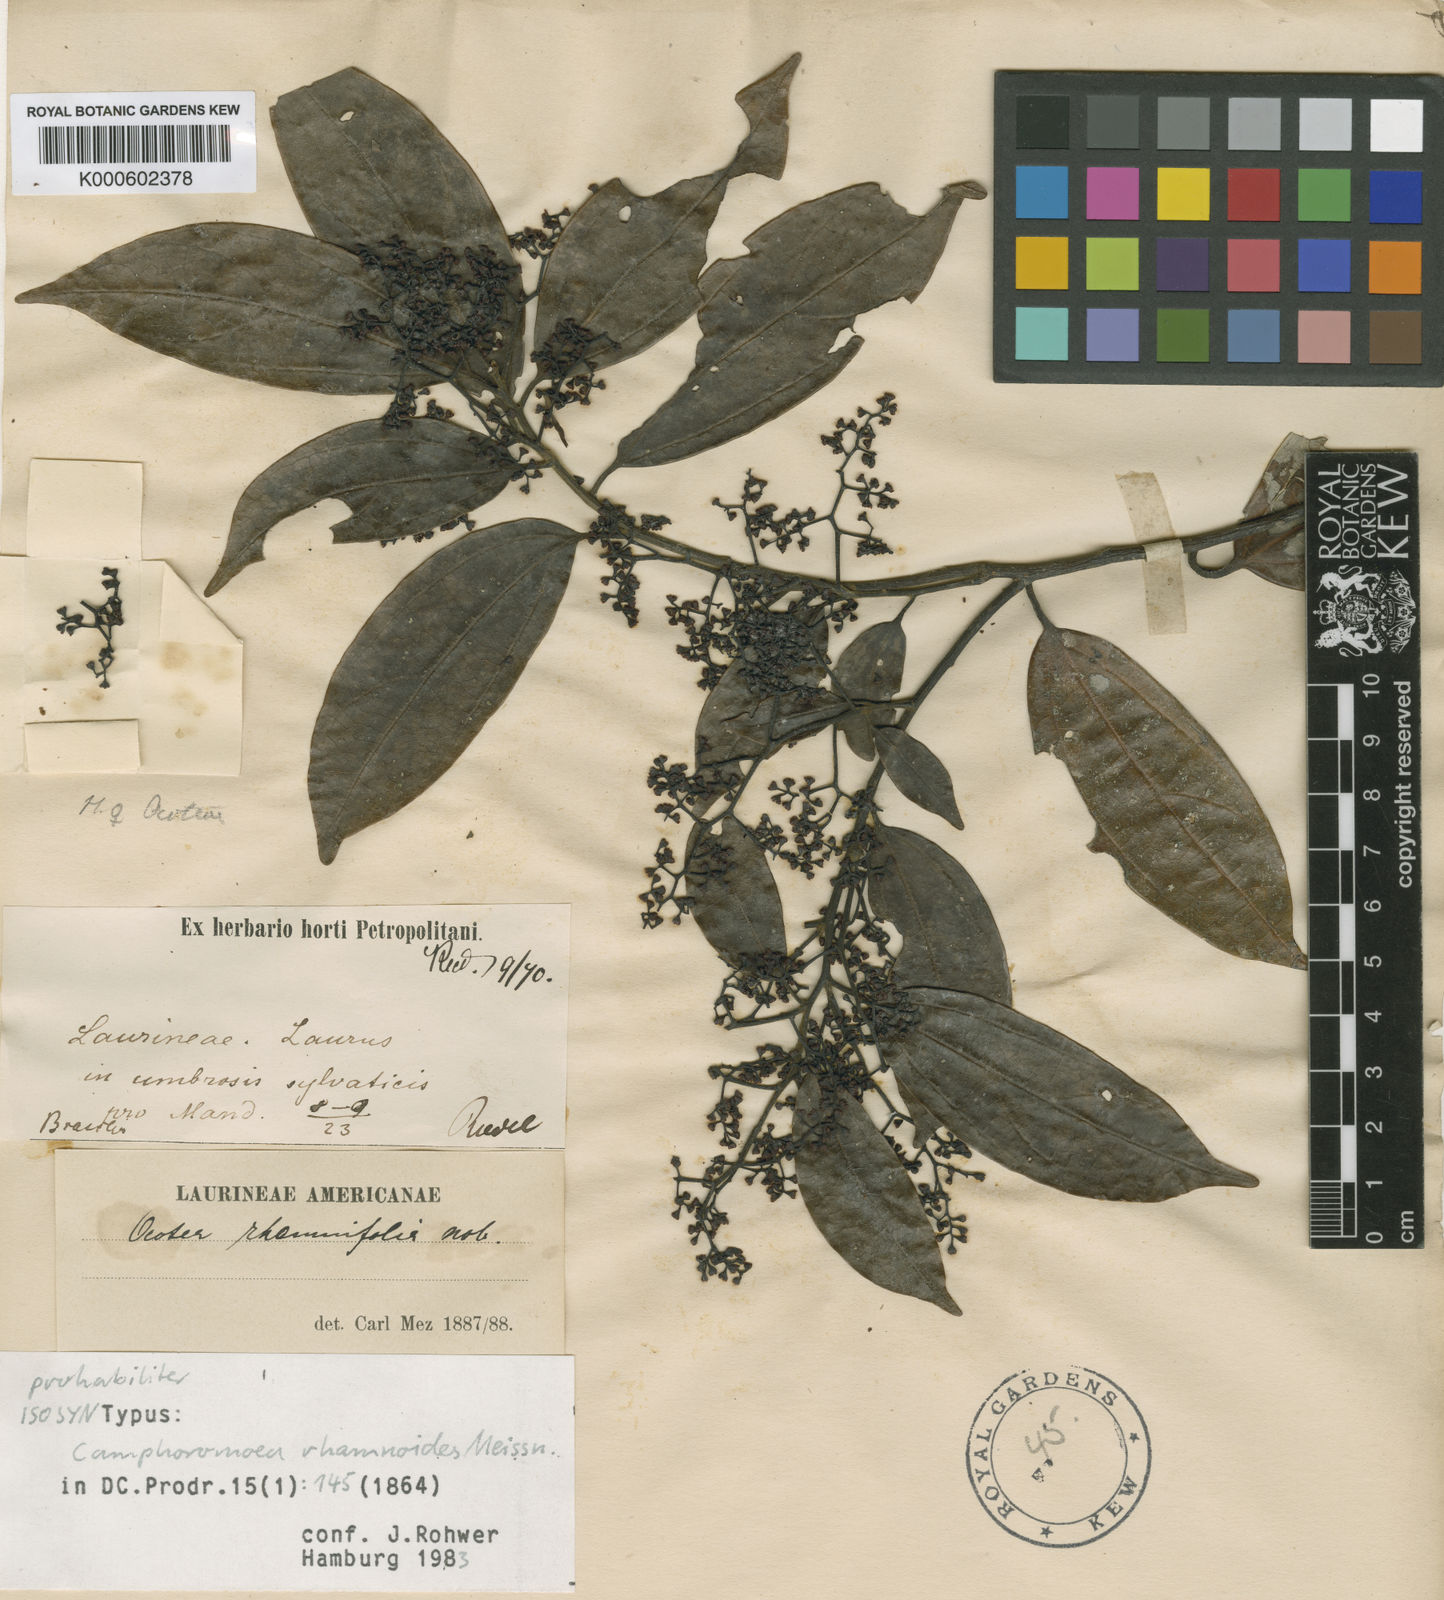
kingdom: Plantae
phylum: Tracheophyta
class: Magnoliopsida
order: Laurales
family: Lauraceae
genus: Ocotea
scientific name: Ocotea
